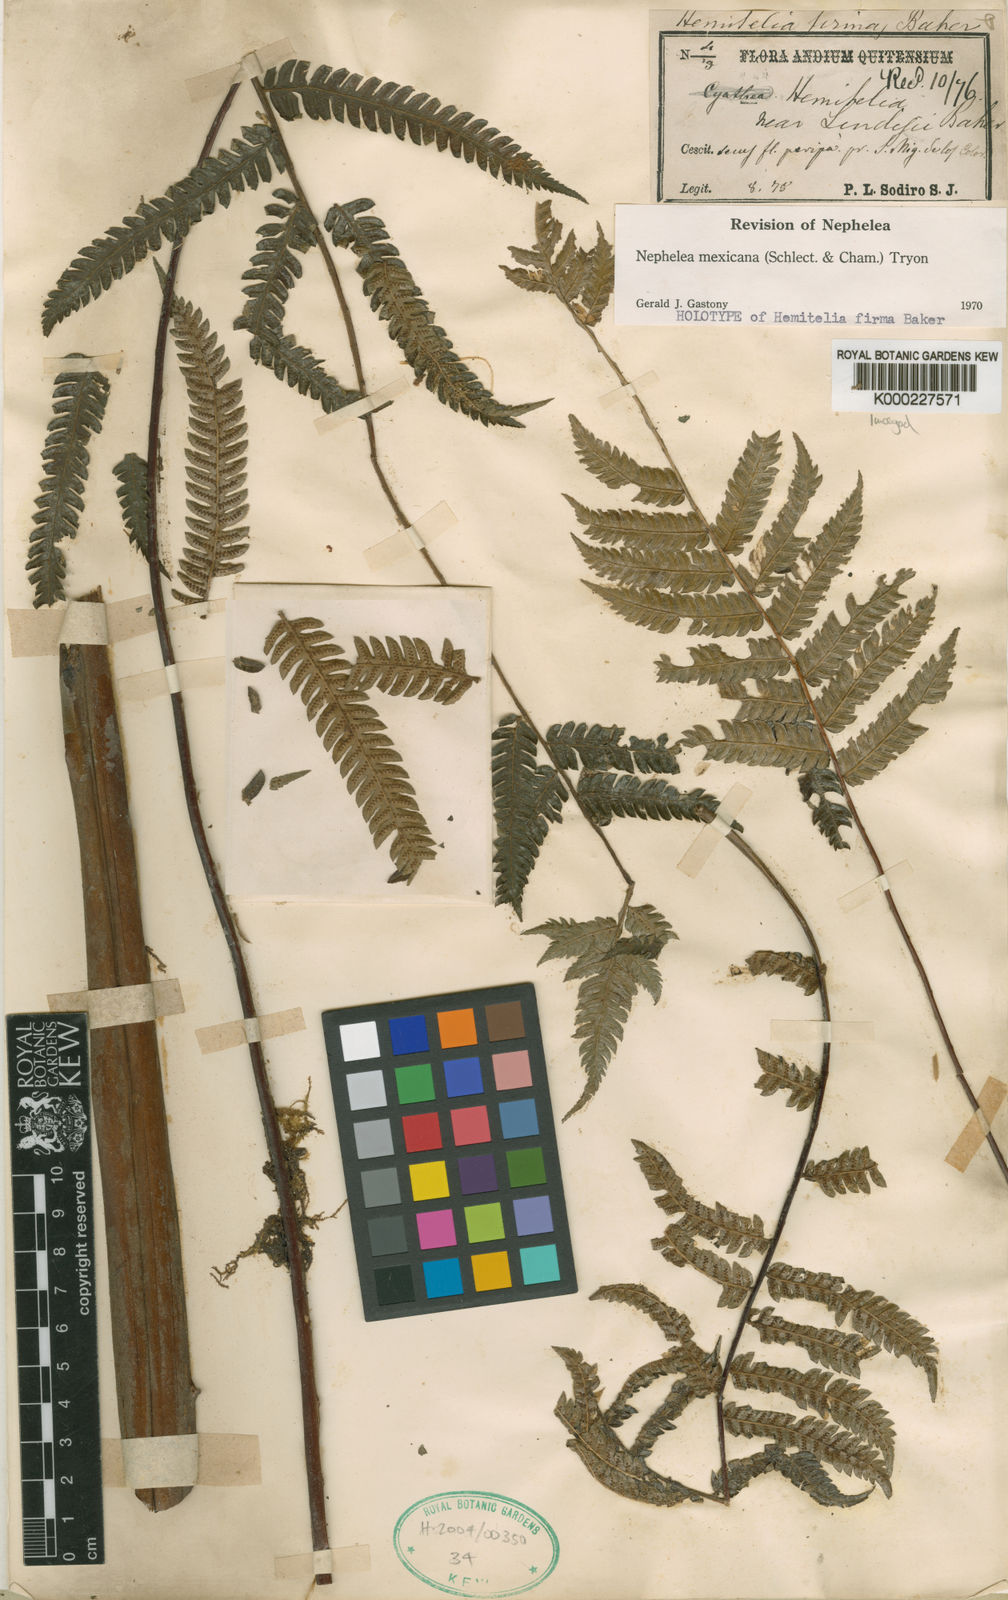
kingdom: Plantae
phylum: Tracheophyta
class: Polypodiopsida
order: Cyatheales
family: Cyatheaceae
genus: Alsophila
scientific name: Alsophila firma
